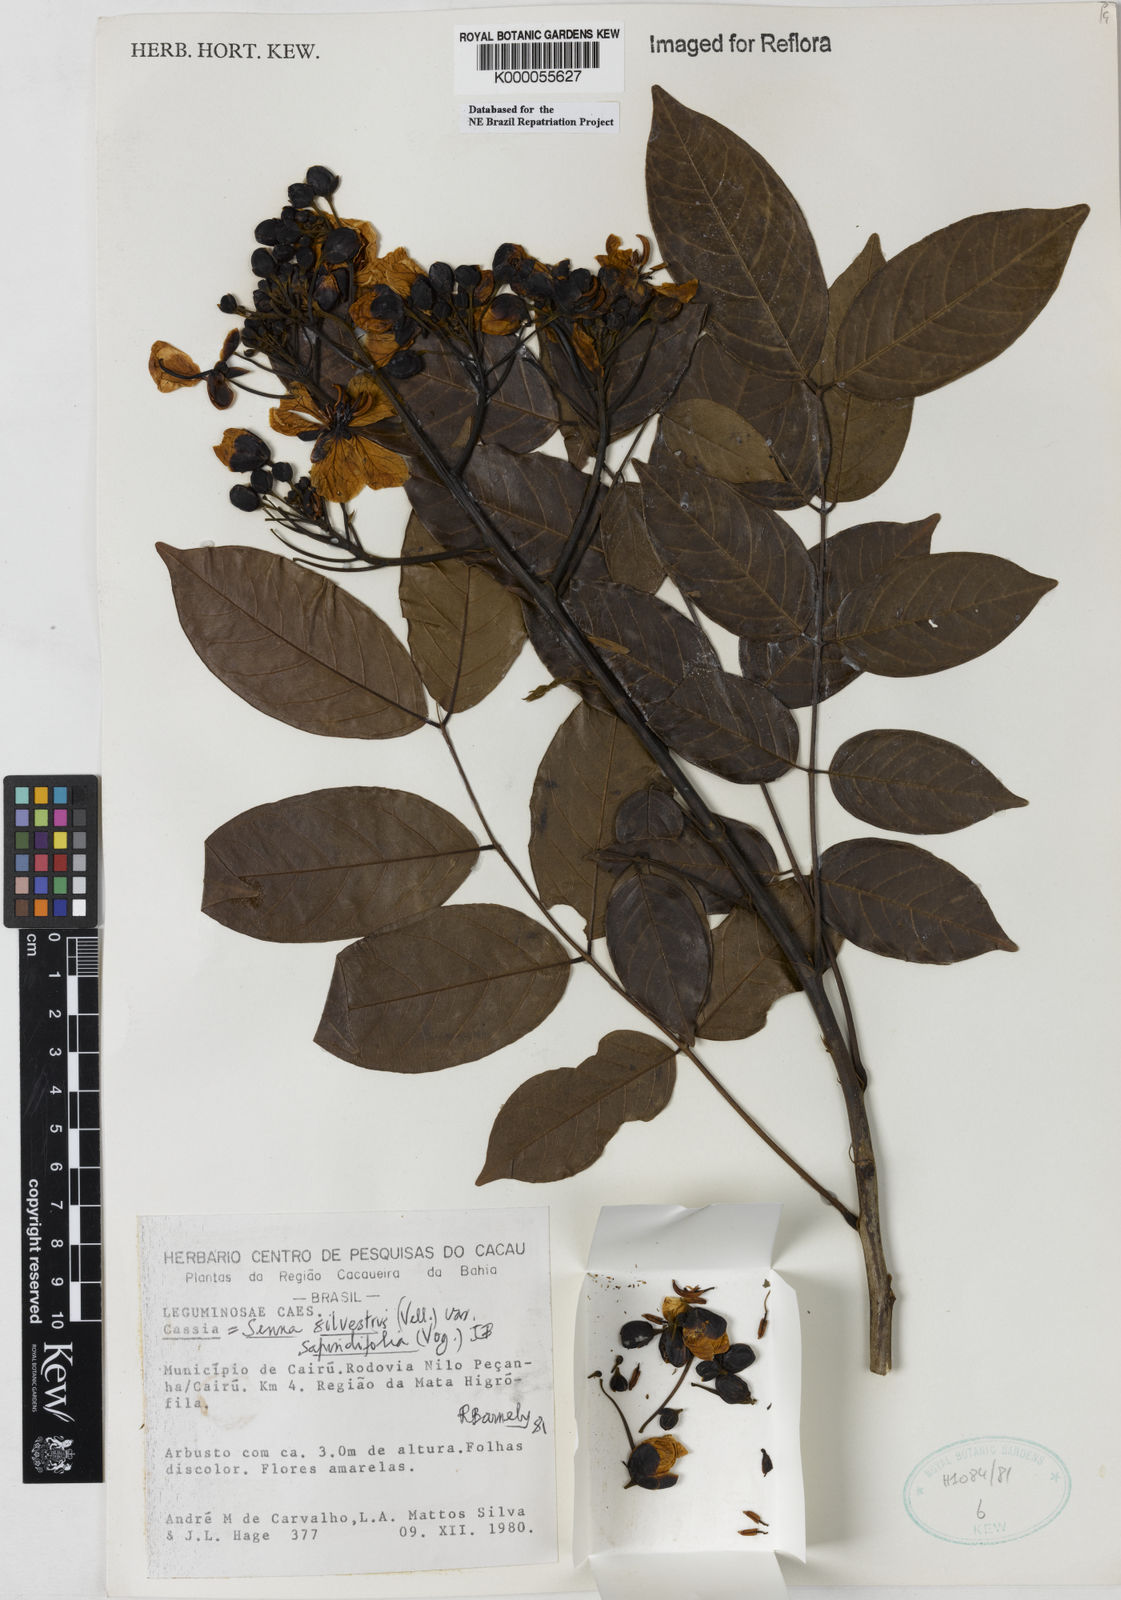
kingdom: Plantae
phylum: Tracheophyta
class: Magnoliopsida
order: Fabales
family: Fabaceae
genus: Senna
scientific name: Senna silvestris
